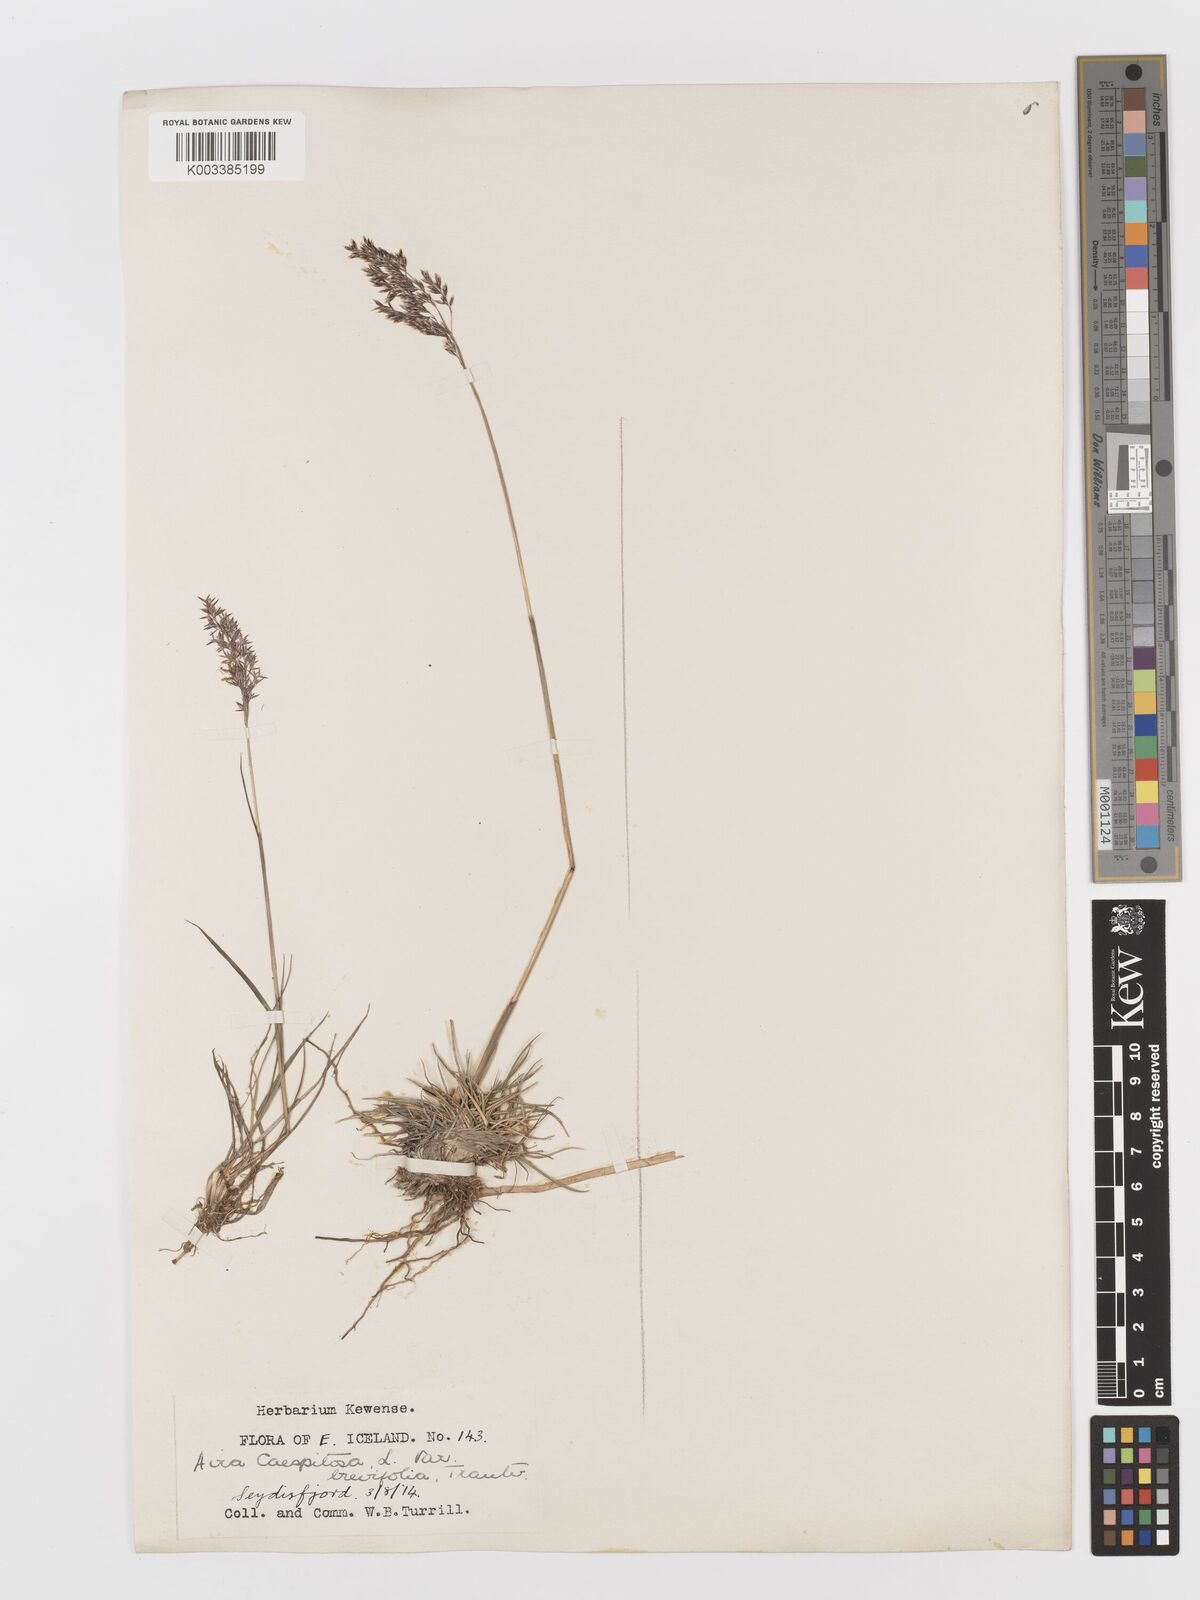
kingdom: Plantae
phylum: Tracheophyta
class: Liliopsida
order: Poales
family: Poaceae
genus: Deschampsia
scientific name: Deschampsia cespitosa
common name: Tufted hair-grass
